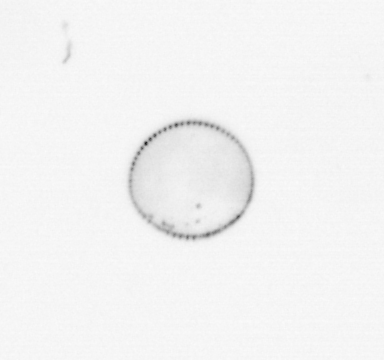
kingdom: Chromista
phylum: Ochrophyta
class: Bacillariophyceae
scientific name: Bacillariophyceae
